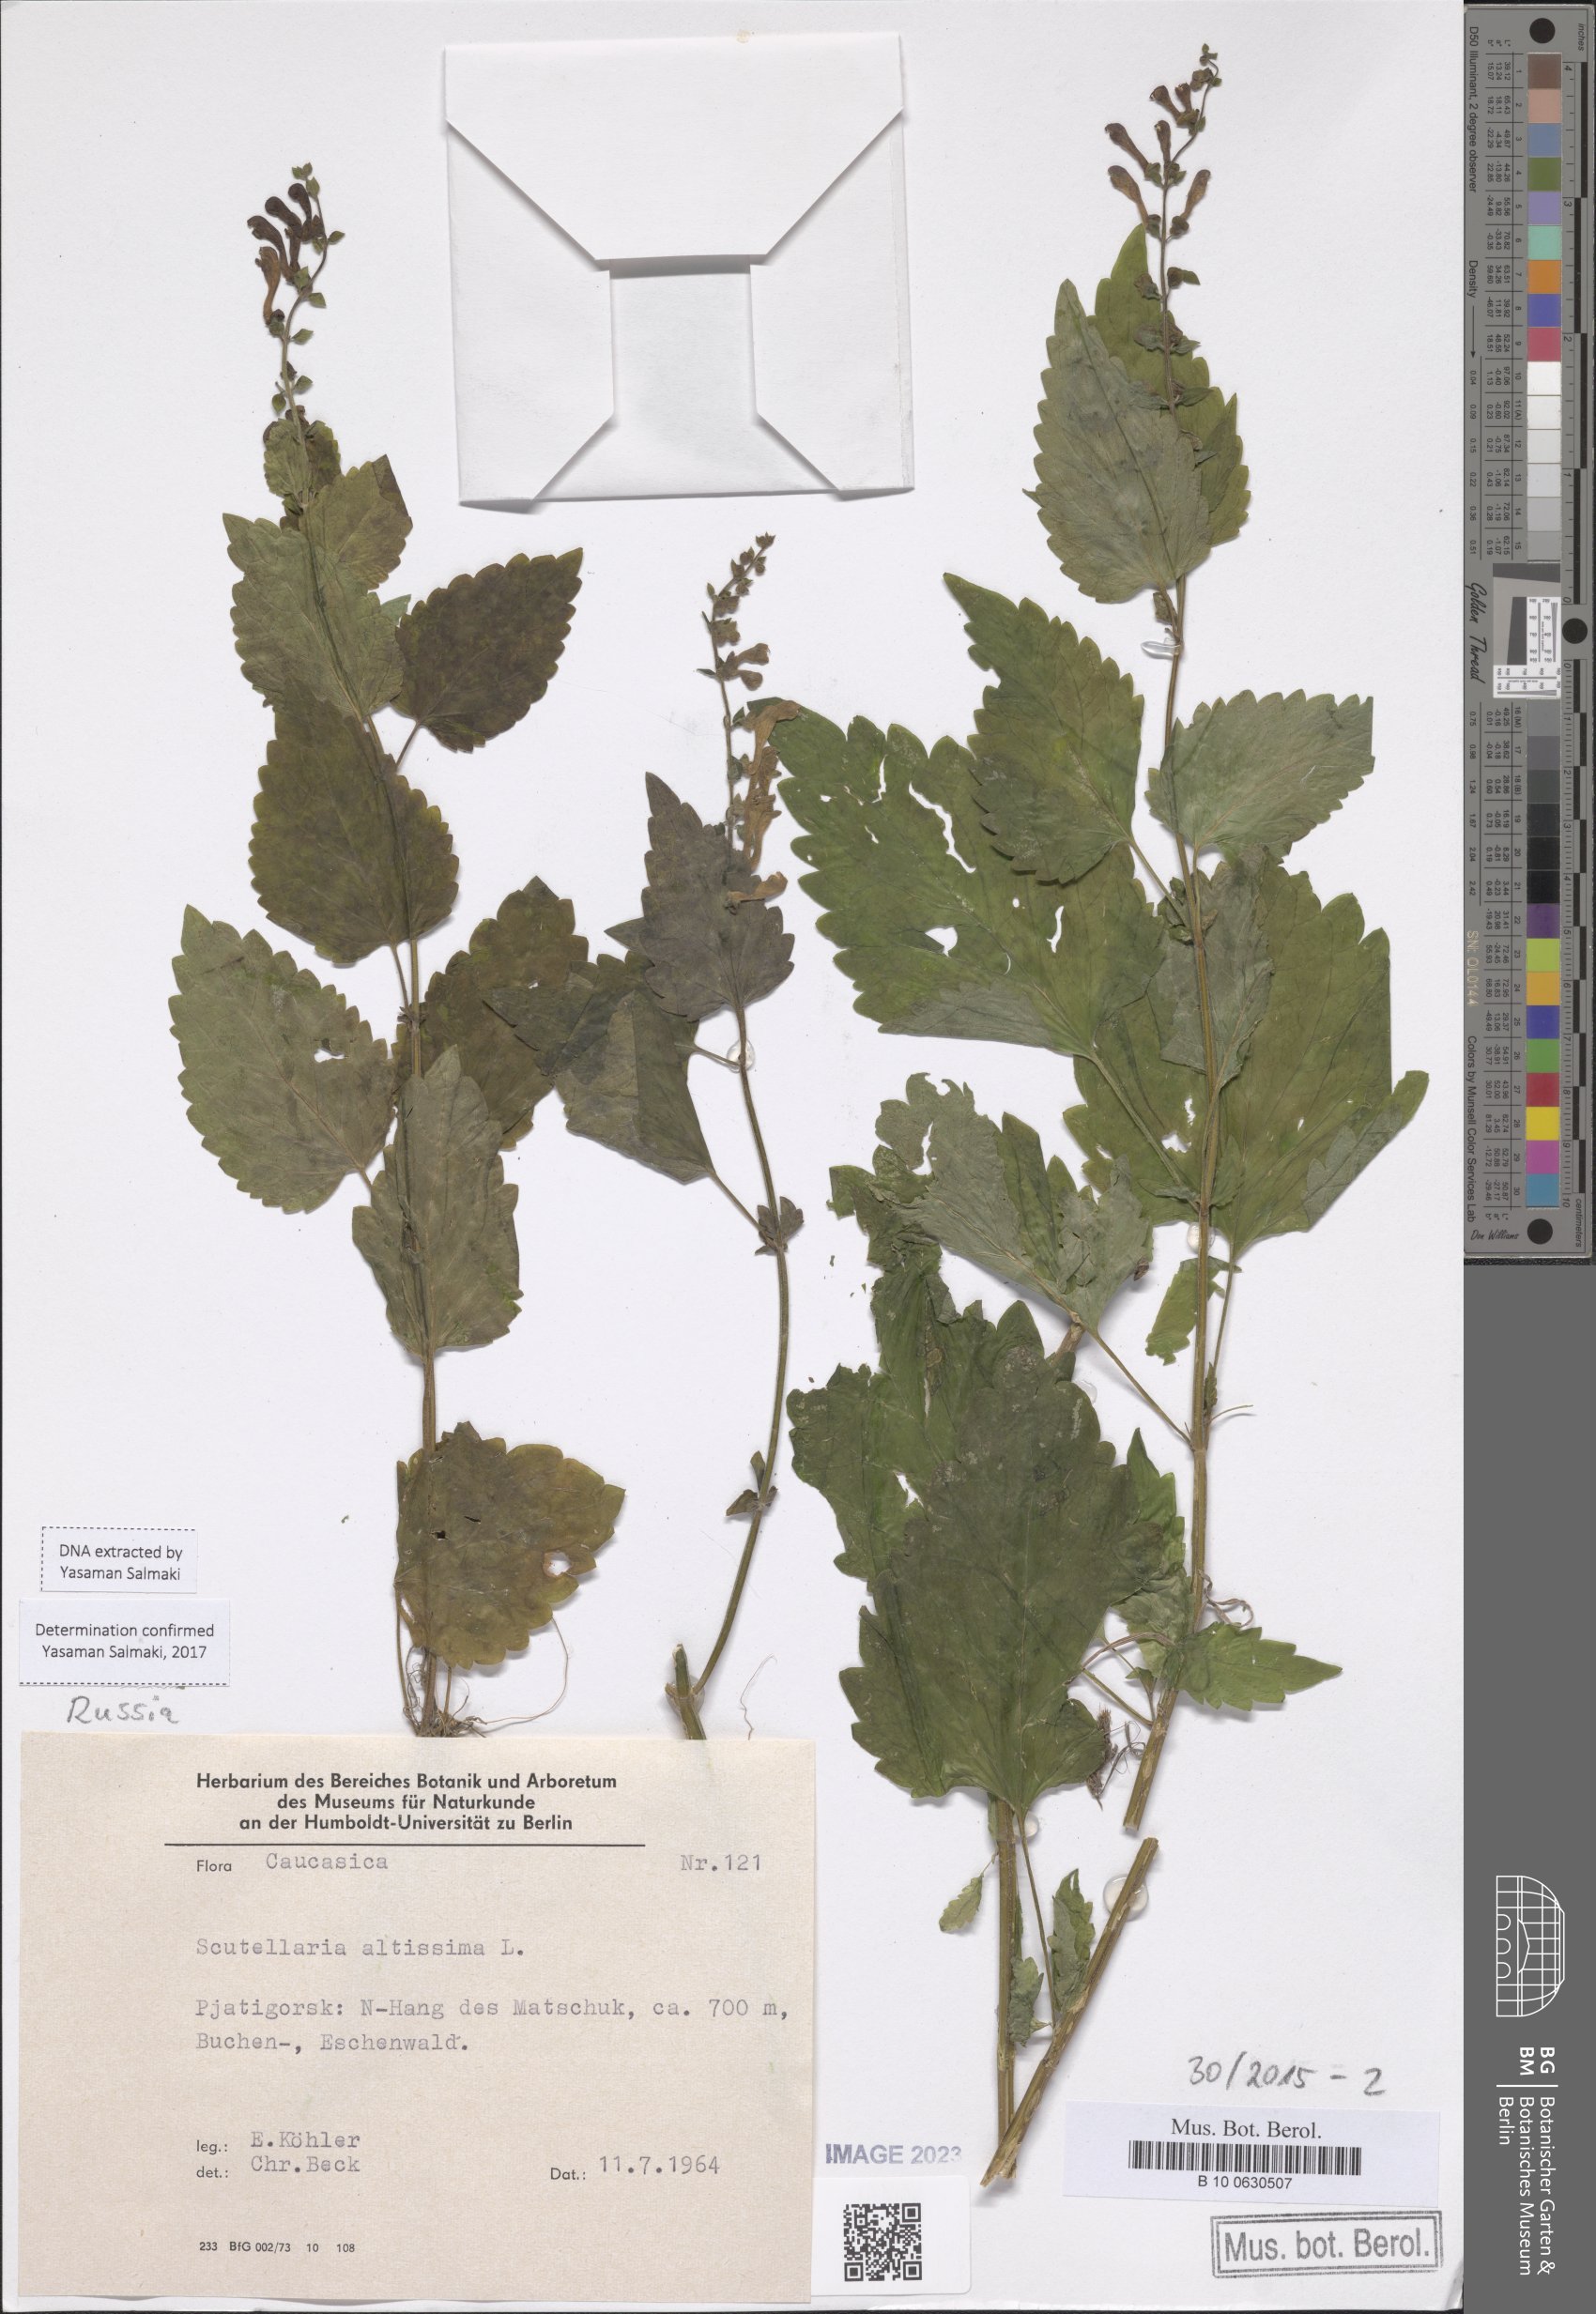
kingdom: Plantae
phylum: Tracheophyta
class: Magnoliopsida
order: Lamiales
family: Lamiaceae
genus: Scutellaria
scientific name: Scutellaria altissima
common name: Somerset skullcap
